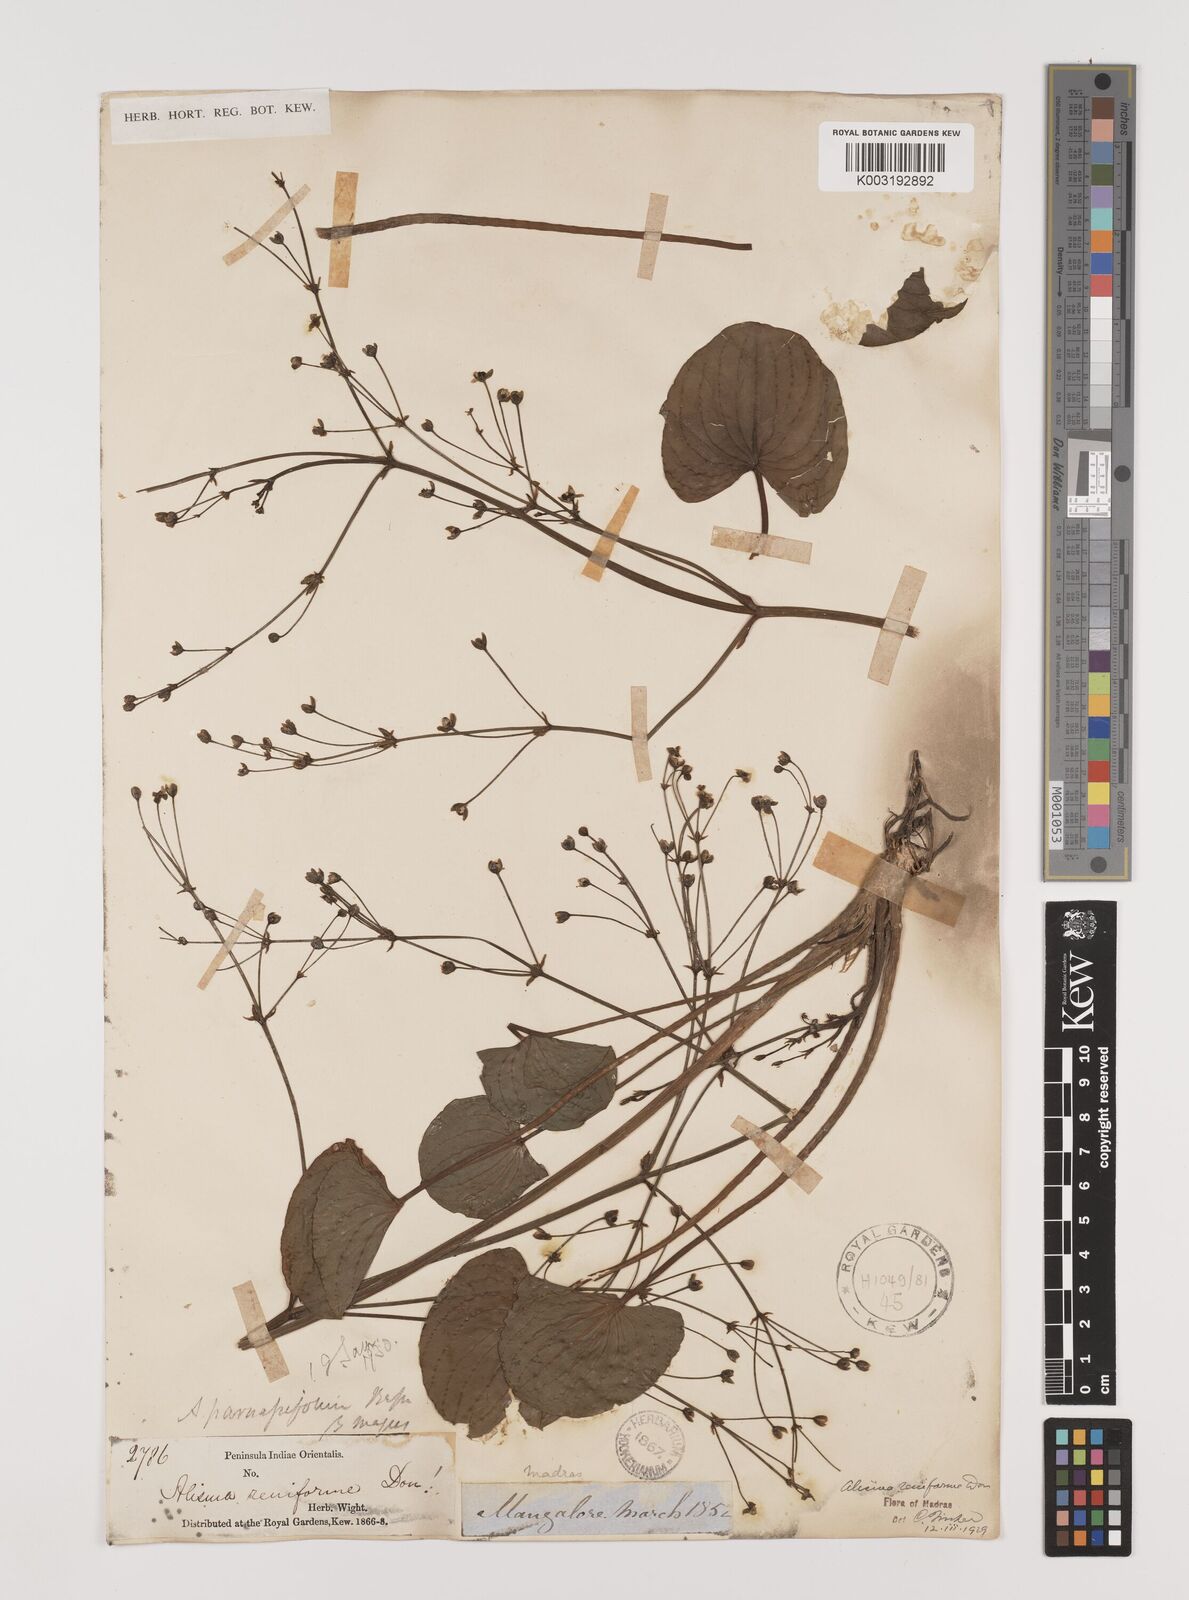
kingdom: Plantae
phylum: Tracheophyta
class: Liliopsida
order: Alismatales
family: Alismataceae
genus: Caldesia
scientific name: Caldesia parnassifolia
